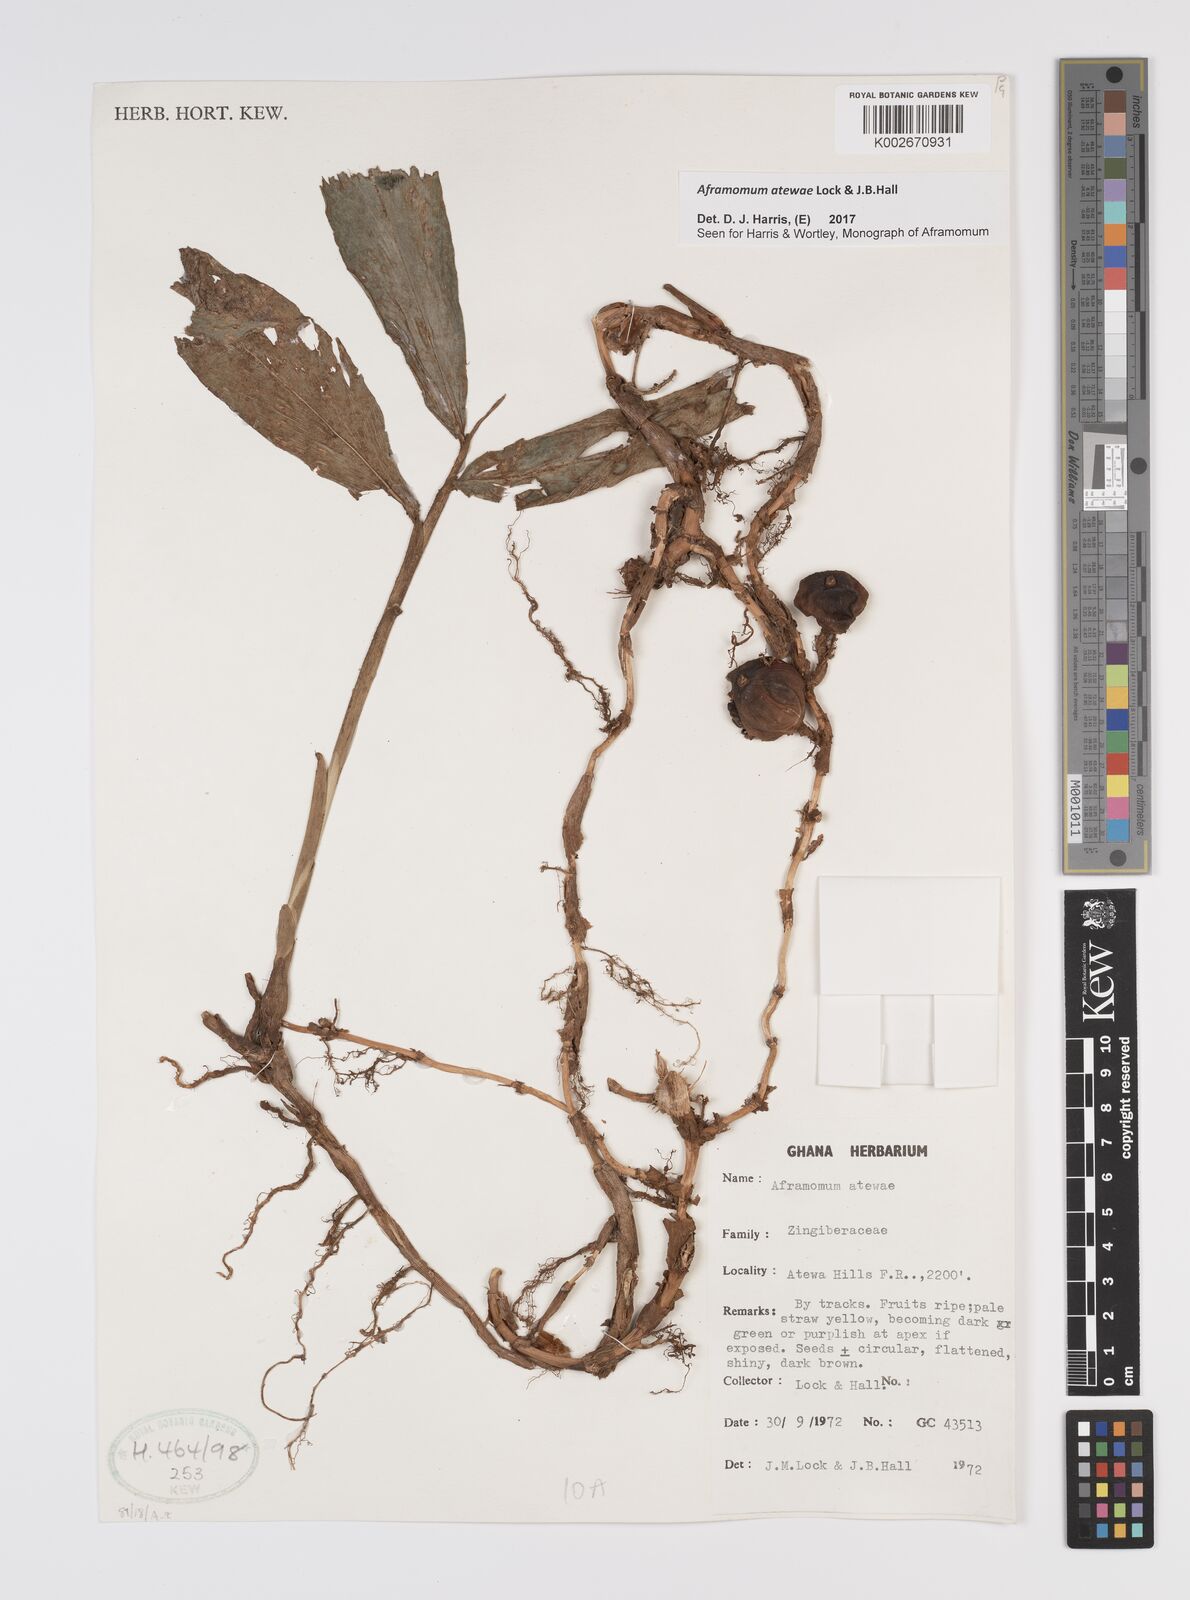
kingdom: Plantae
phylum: Tracheophyta
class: Liliopsida
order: Zingiberales
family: Zingiberaceae
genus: Aframomum
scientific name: Aframomum atewae
